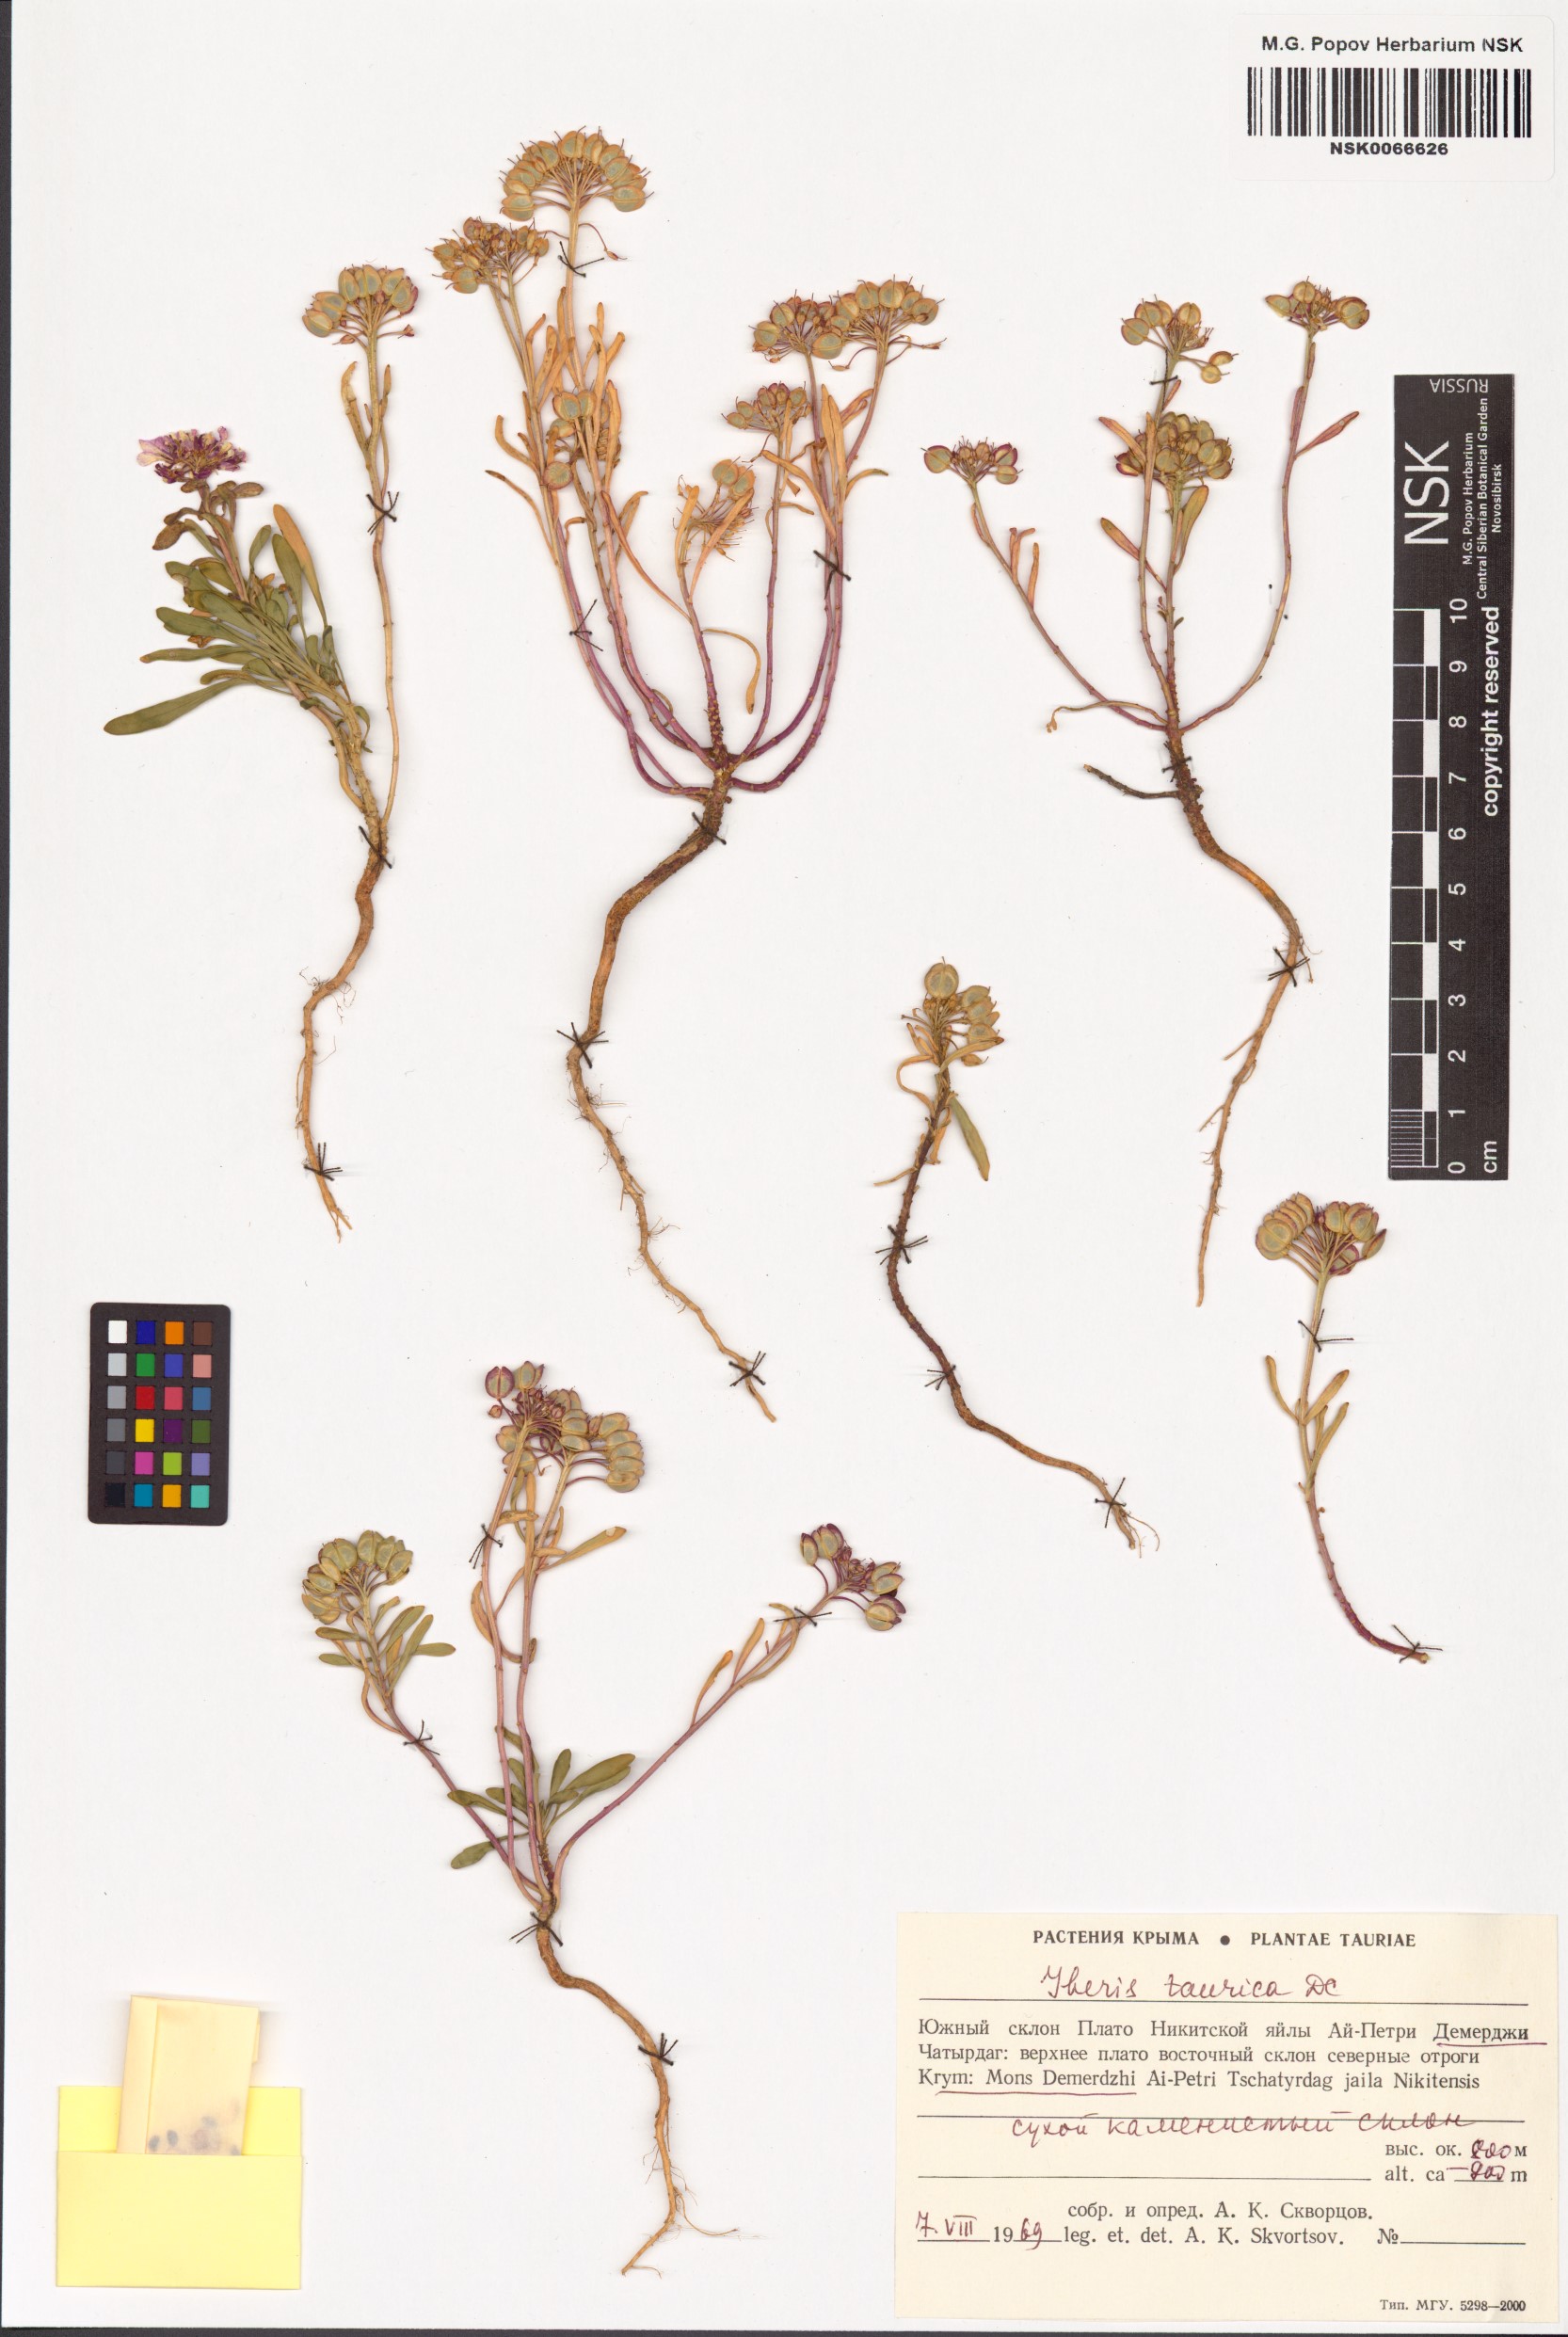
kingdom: Plantae
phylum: Tracheophyta
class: Magnoliopsida
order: Brassicales
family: Brassicaceae
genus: Iberis
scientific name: Iberis simplex
